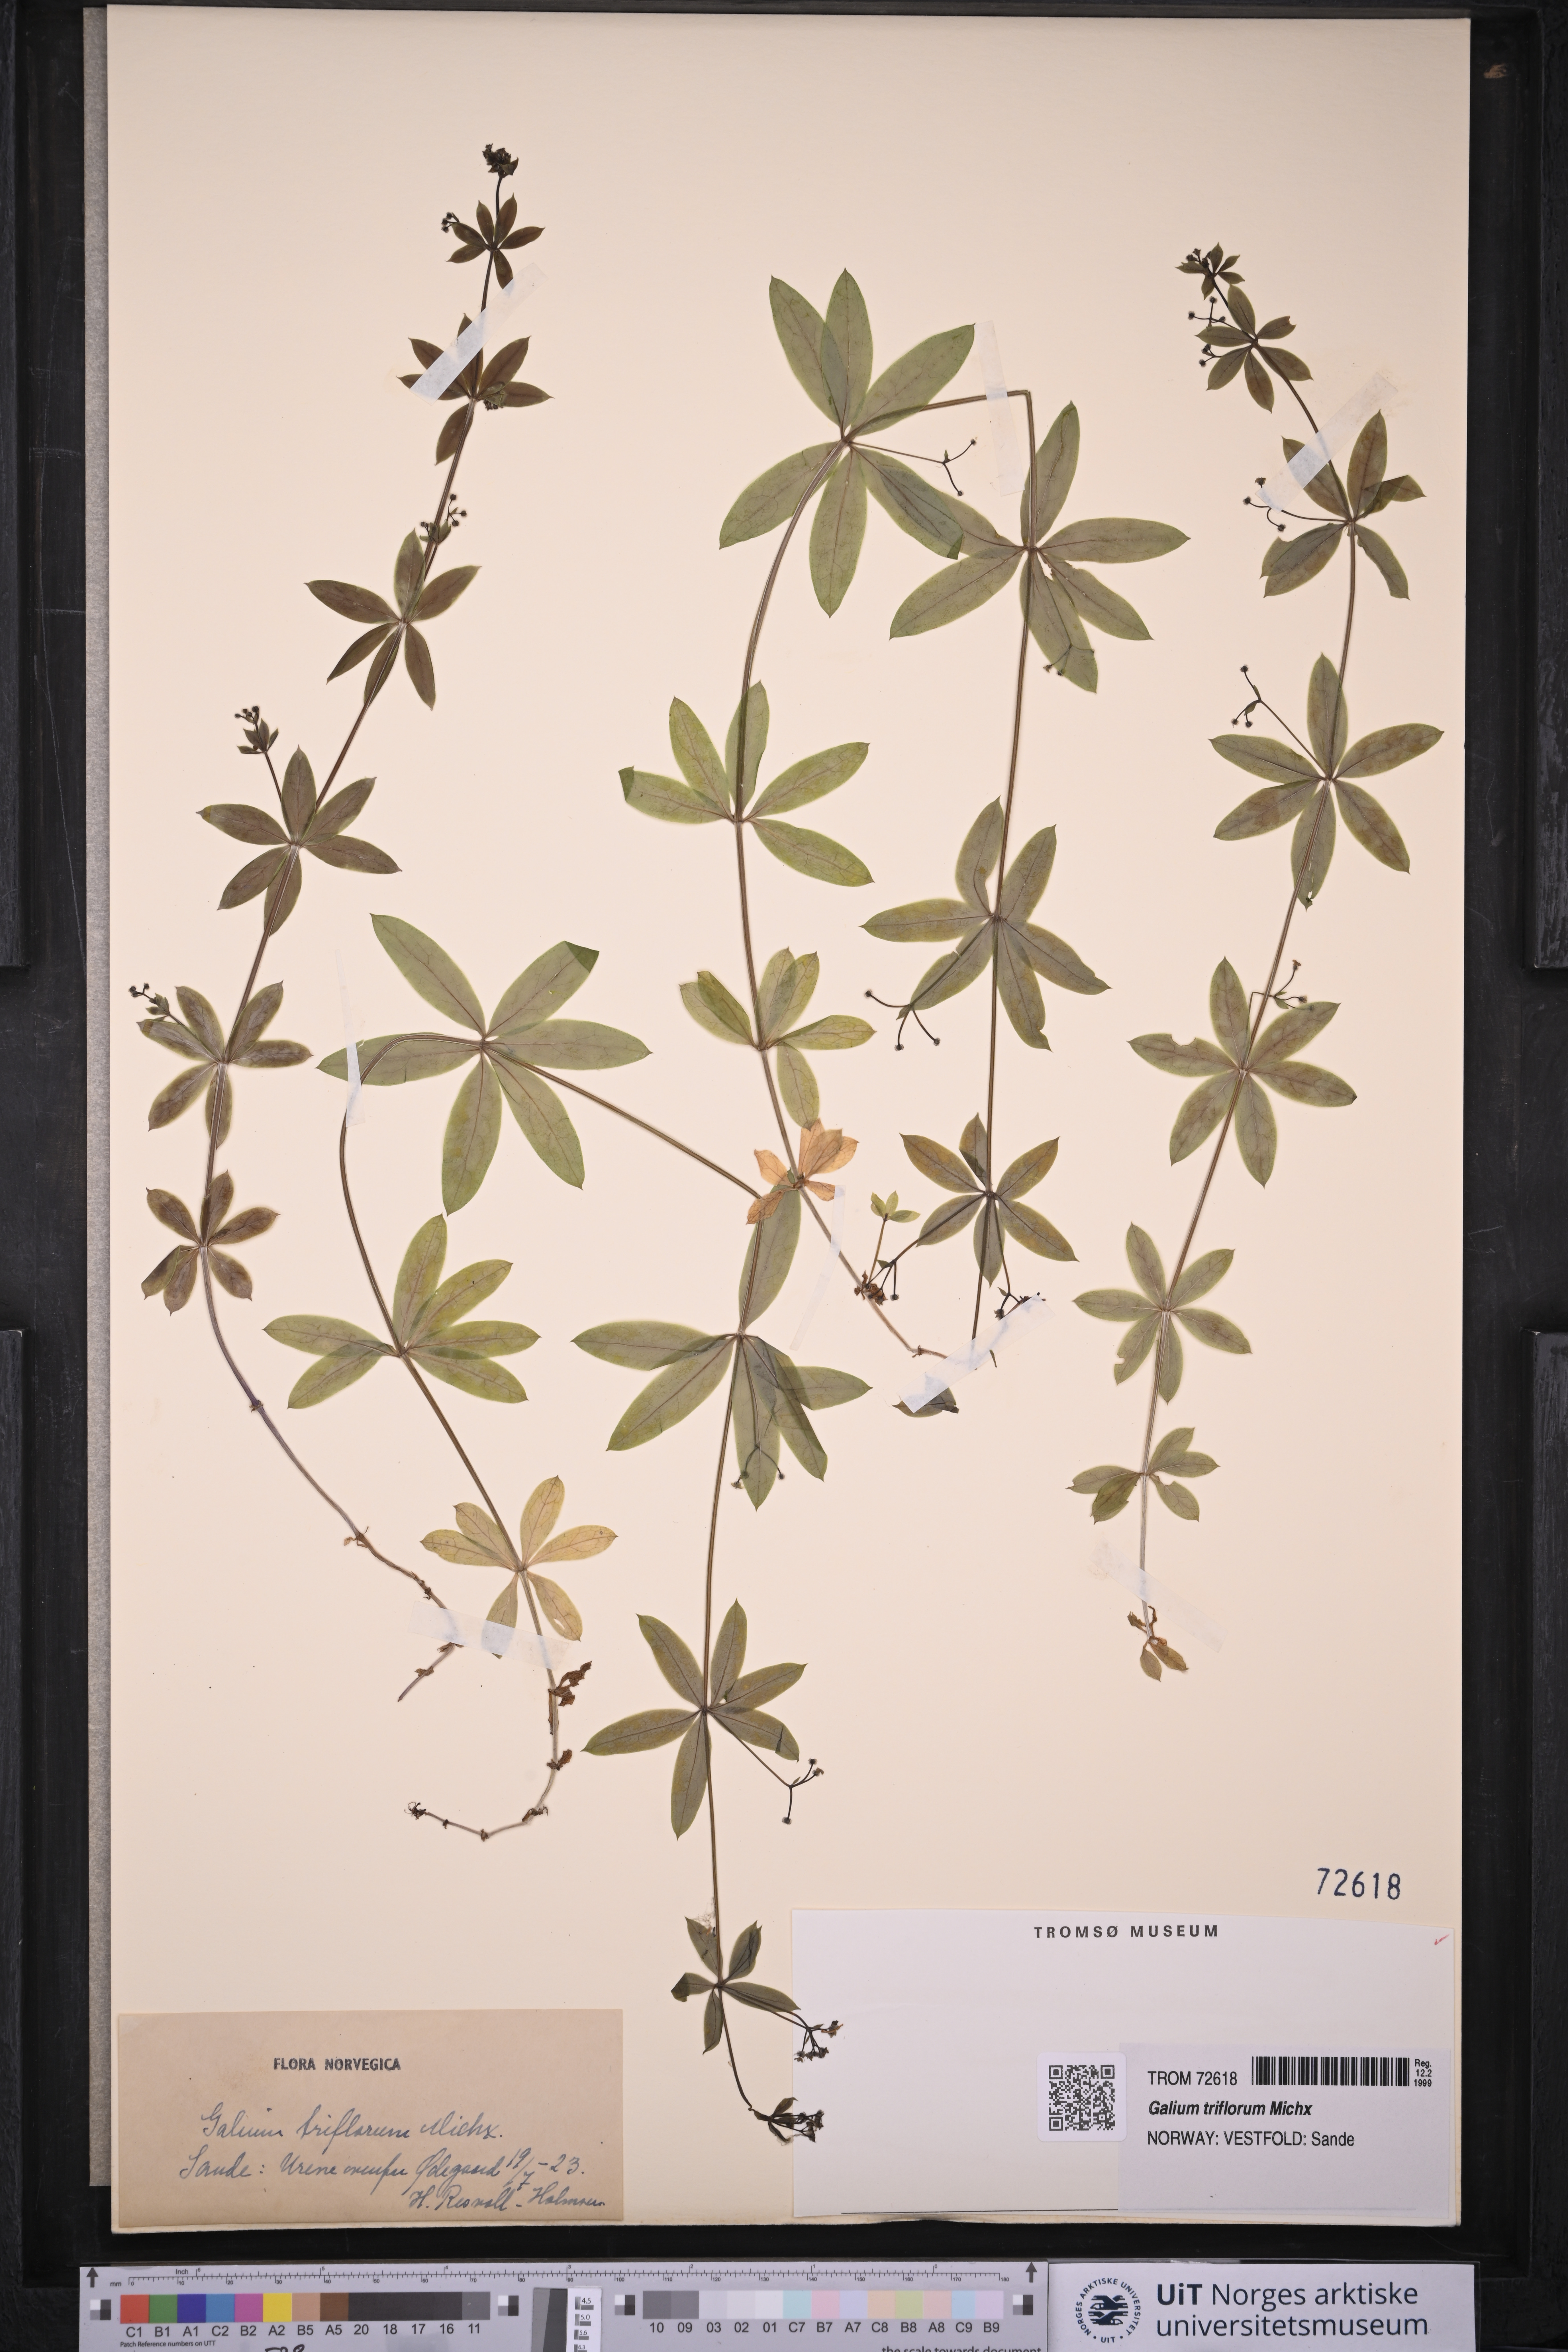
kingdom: Plantae
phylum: Tracheophyta
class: Magnoliopsida
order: Gentianales
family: Rubiaceae
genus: Galium
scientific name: Galium triflorum
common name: Fragrant bedstraw
